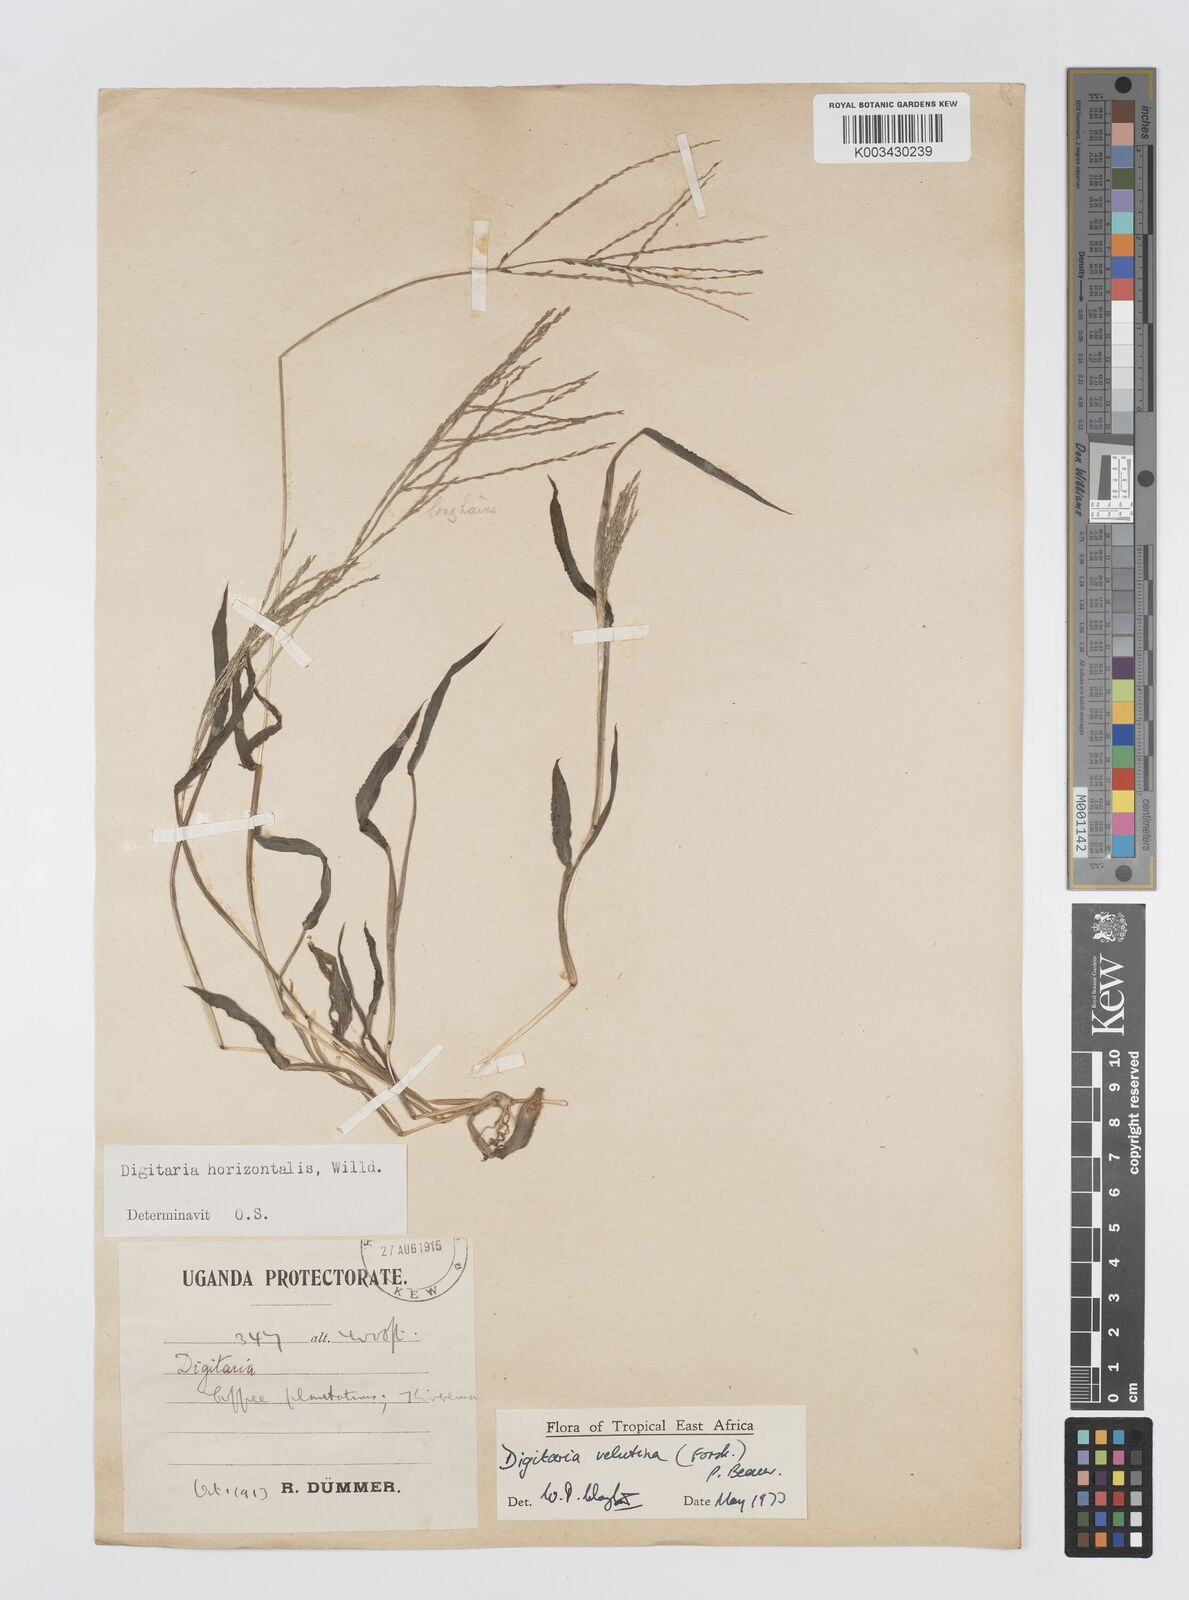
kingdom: Plantae
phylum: Tracheophyta
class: Liliopsida
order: Poales
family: Poaceae
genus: Digitaria
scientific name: Digitaria velutina
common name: Long-plume finger grass
